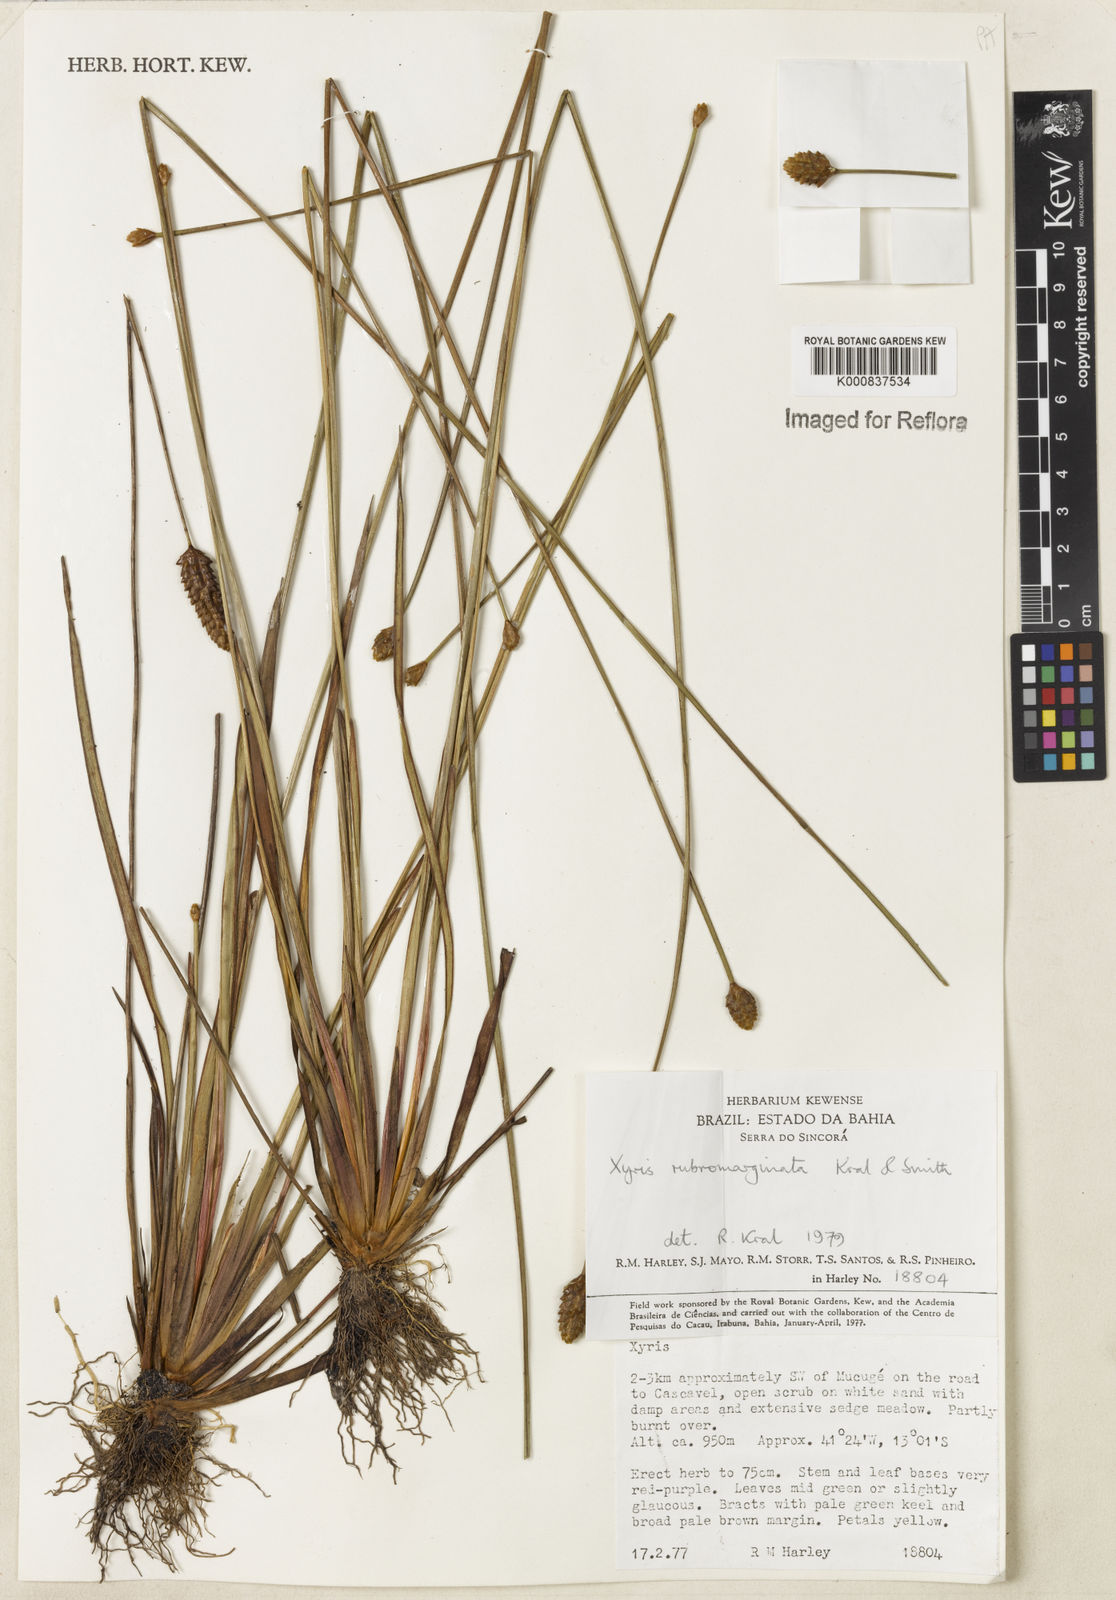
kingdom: Plantae
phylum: Tracheophyta
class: Liliopsida
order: Poales
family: Xyridaceae
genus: Xyris
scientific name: Xyris rubromarginata
